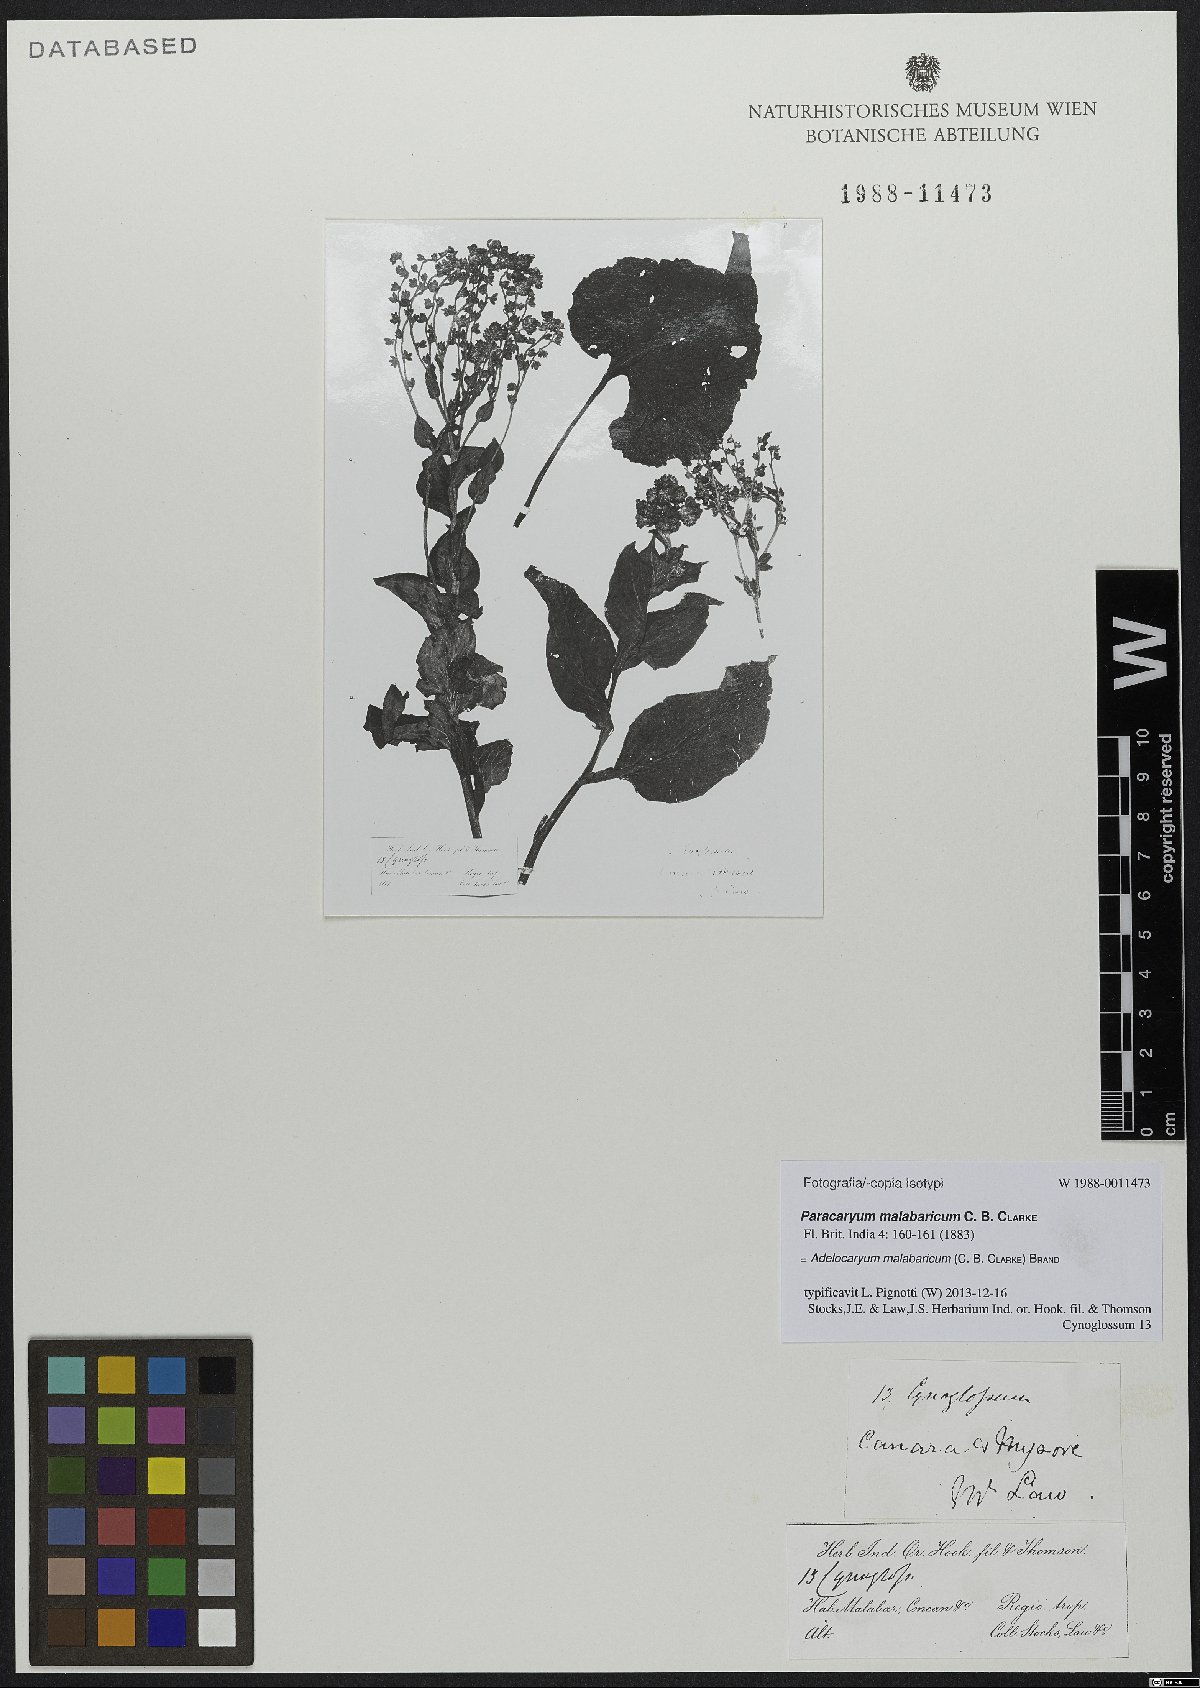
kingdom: Plantae
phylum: Tracheophyta
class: Magnoliopsida
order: Boraginales
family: Boraginaceae
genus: Paracaryum
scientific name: Paracaryum malabaricum
